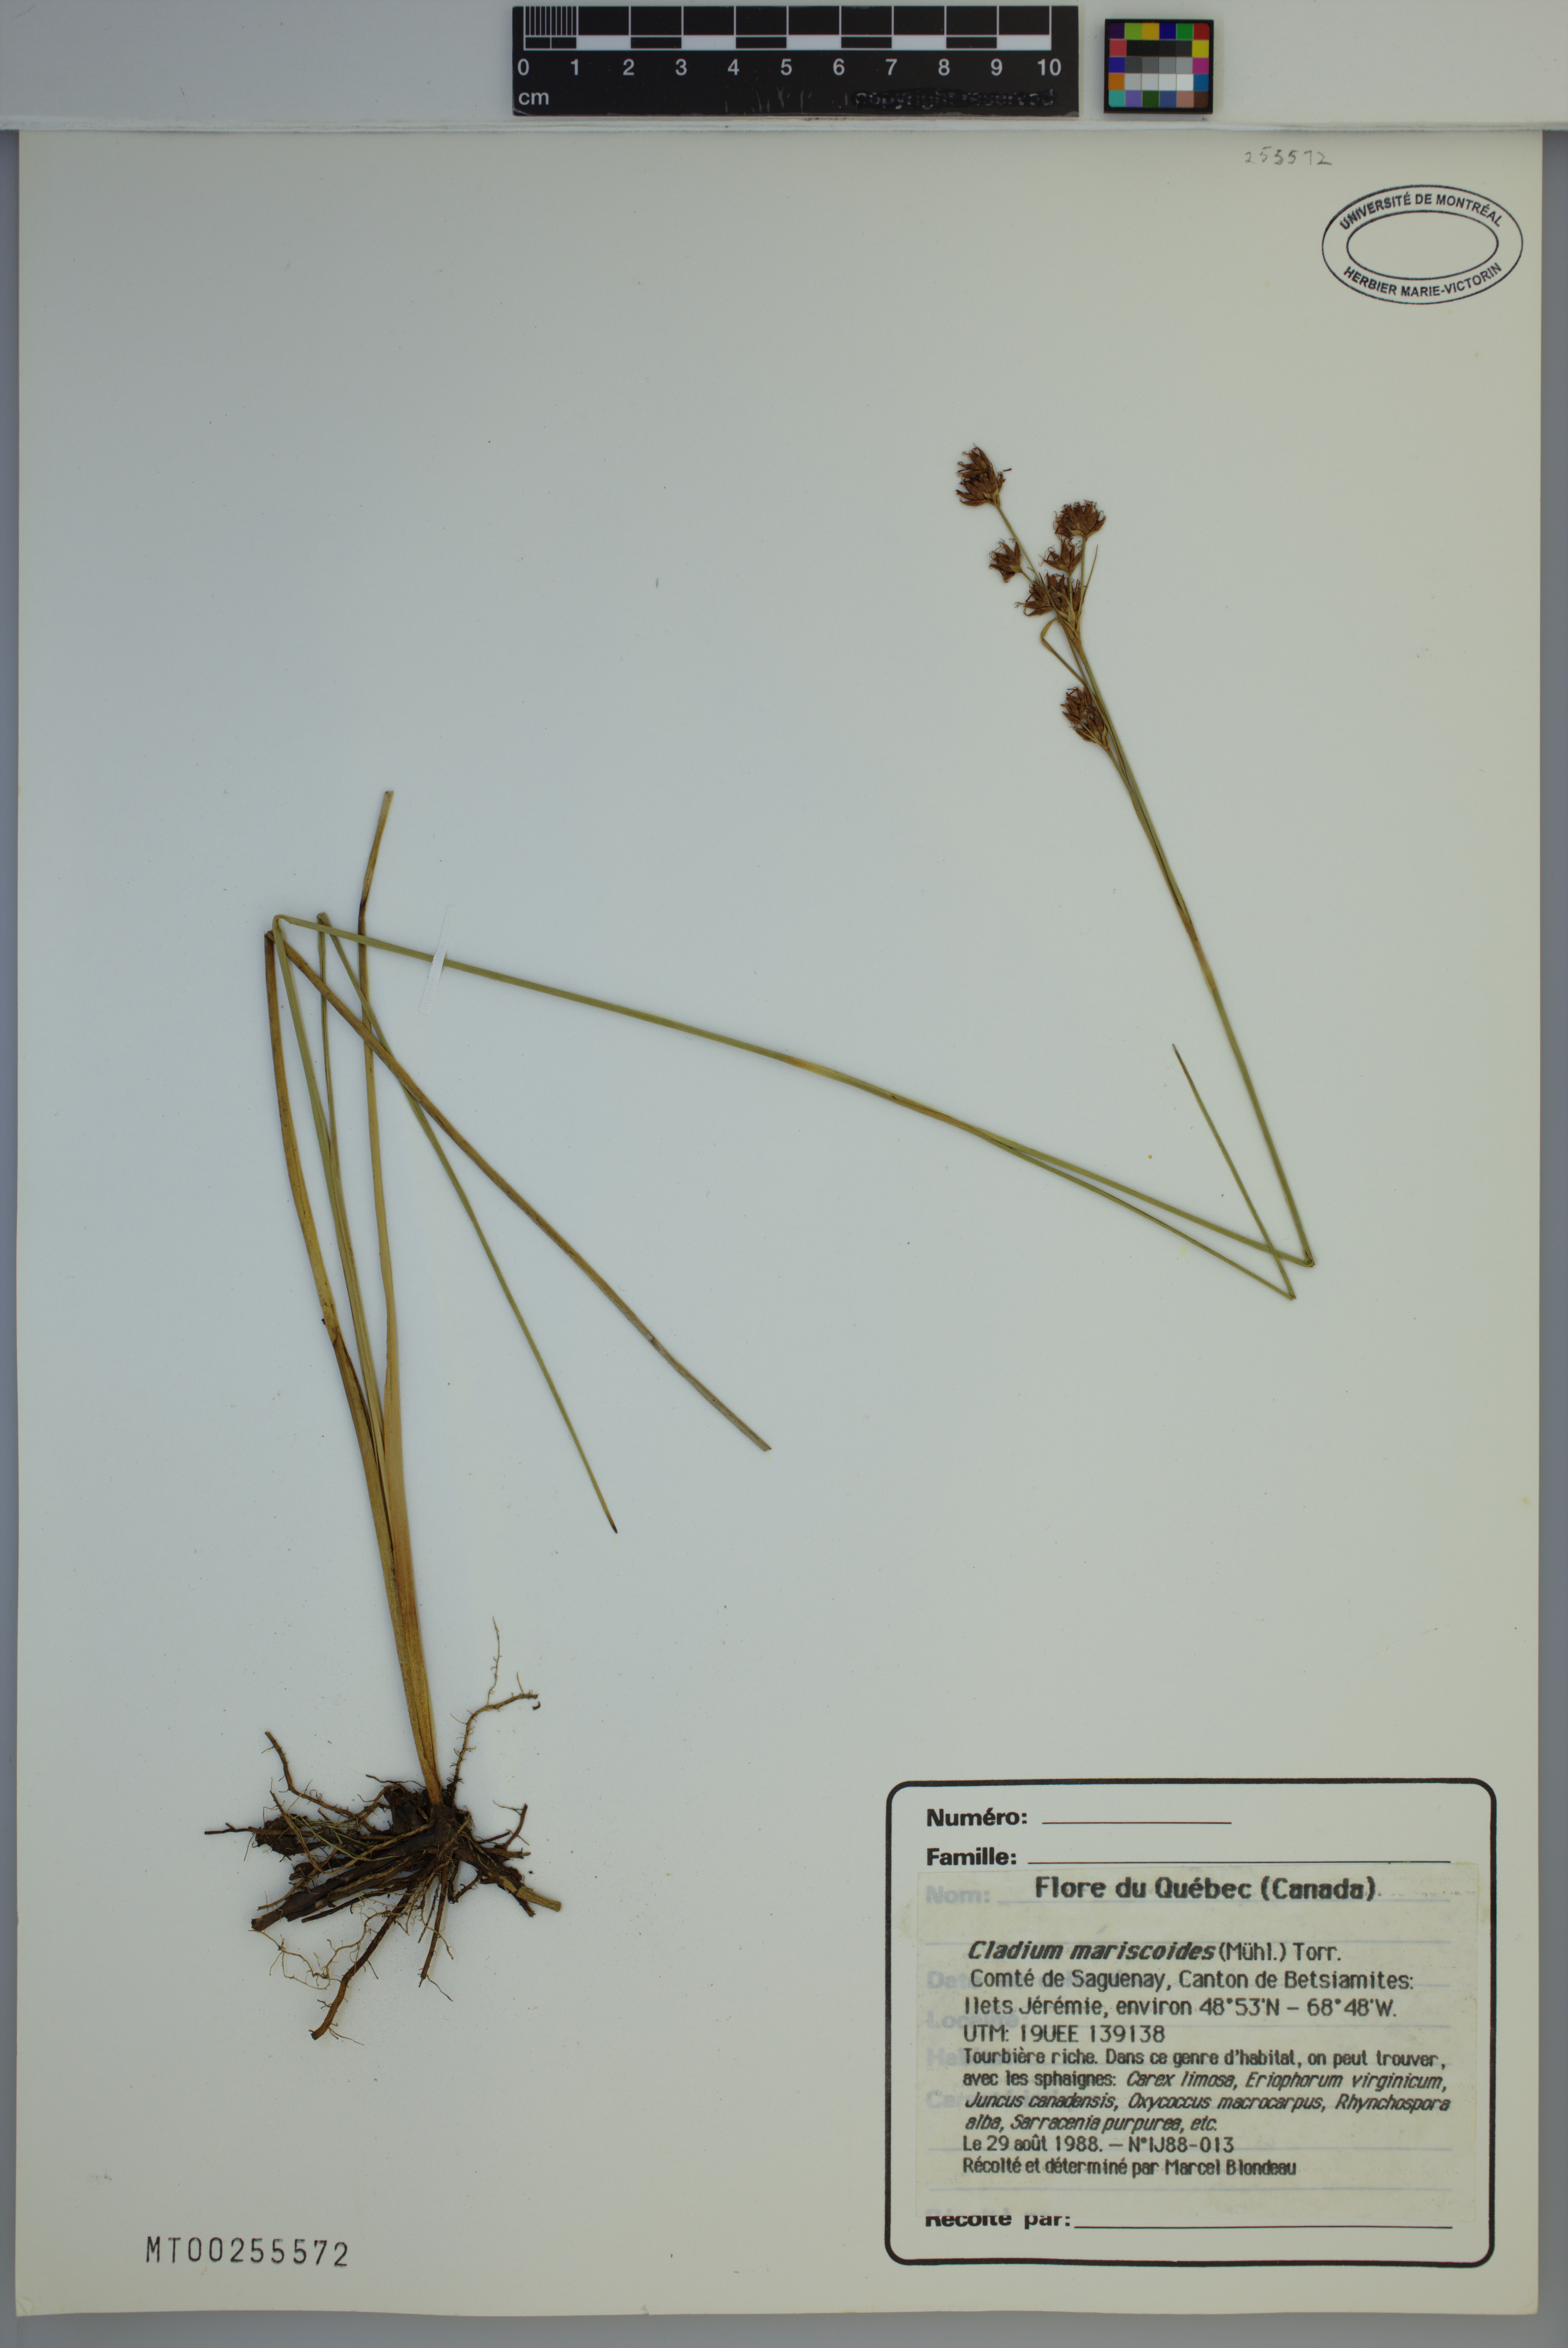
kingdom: Plantae
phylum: Tracheophyta
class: Liliopsida
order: Poales
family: Cyperaceae
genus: Cladium
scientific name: Cladium mariscoides
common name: Smooth sawgrass
